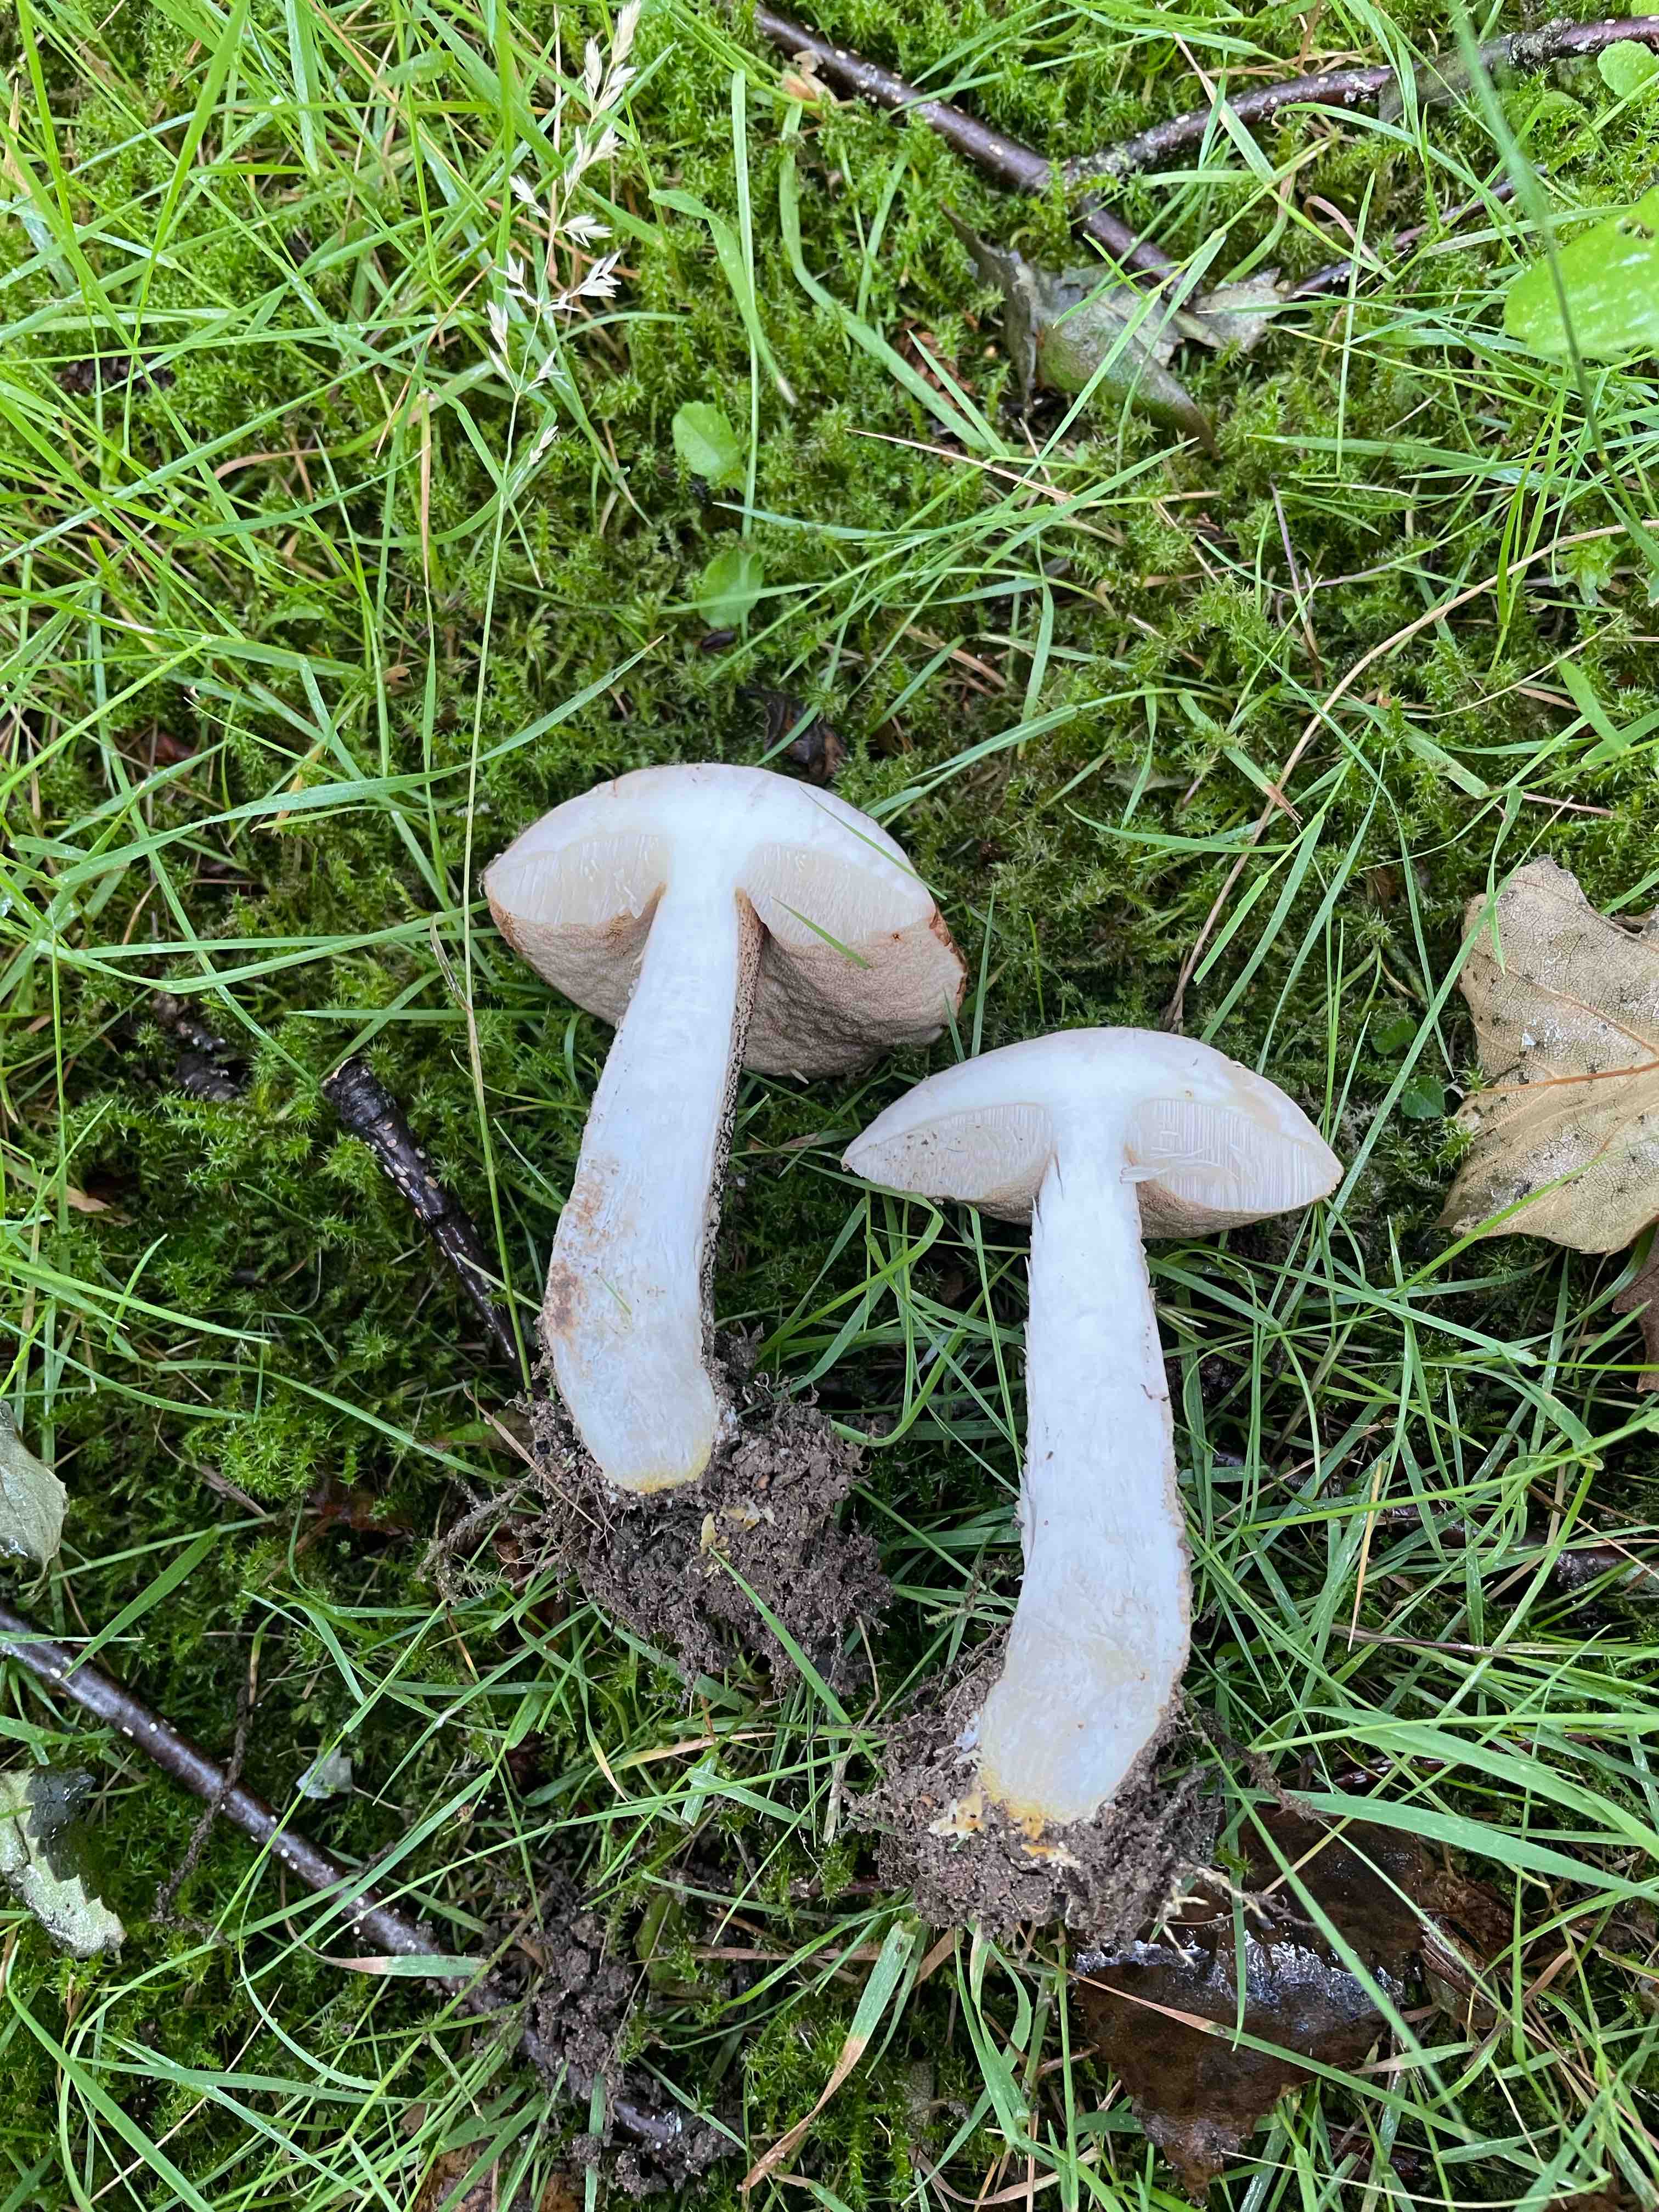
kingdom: Fungi
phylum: Basidiomycota
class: Agaricomycetes
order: Boletales
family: Boletaceae
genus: Leccinum
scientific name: Leccinum scabrum
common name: brun skælrørhat
